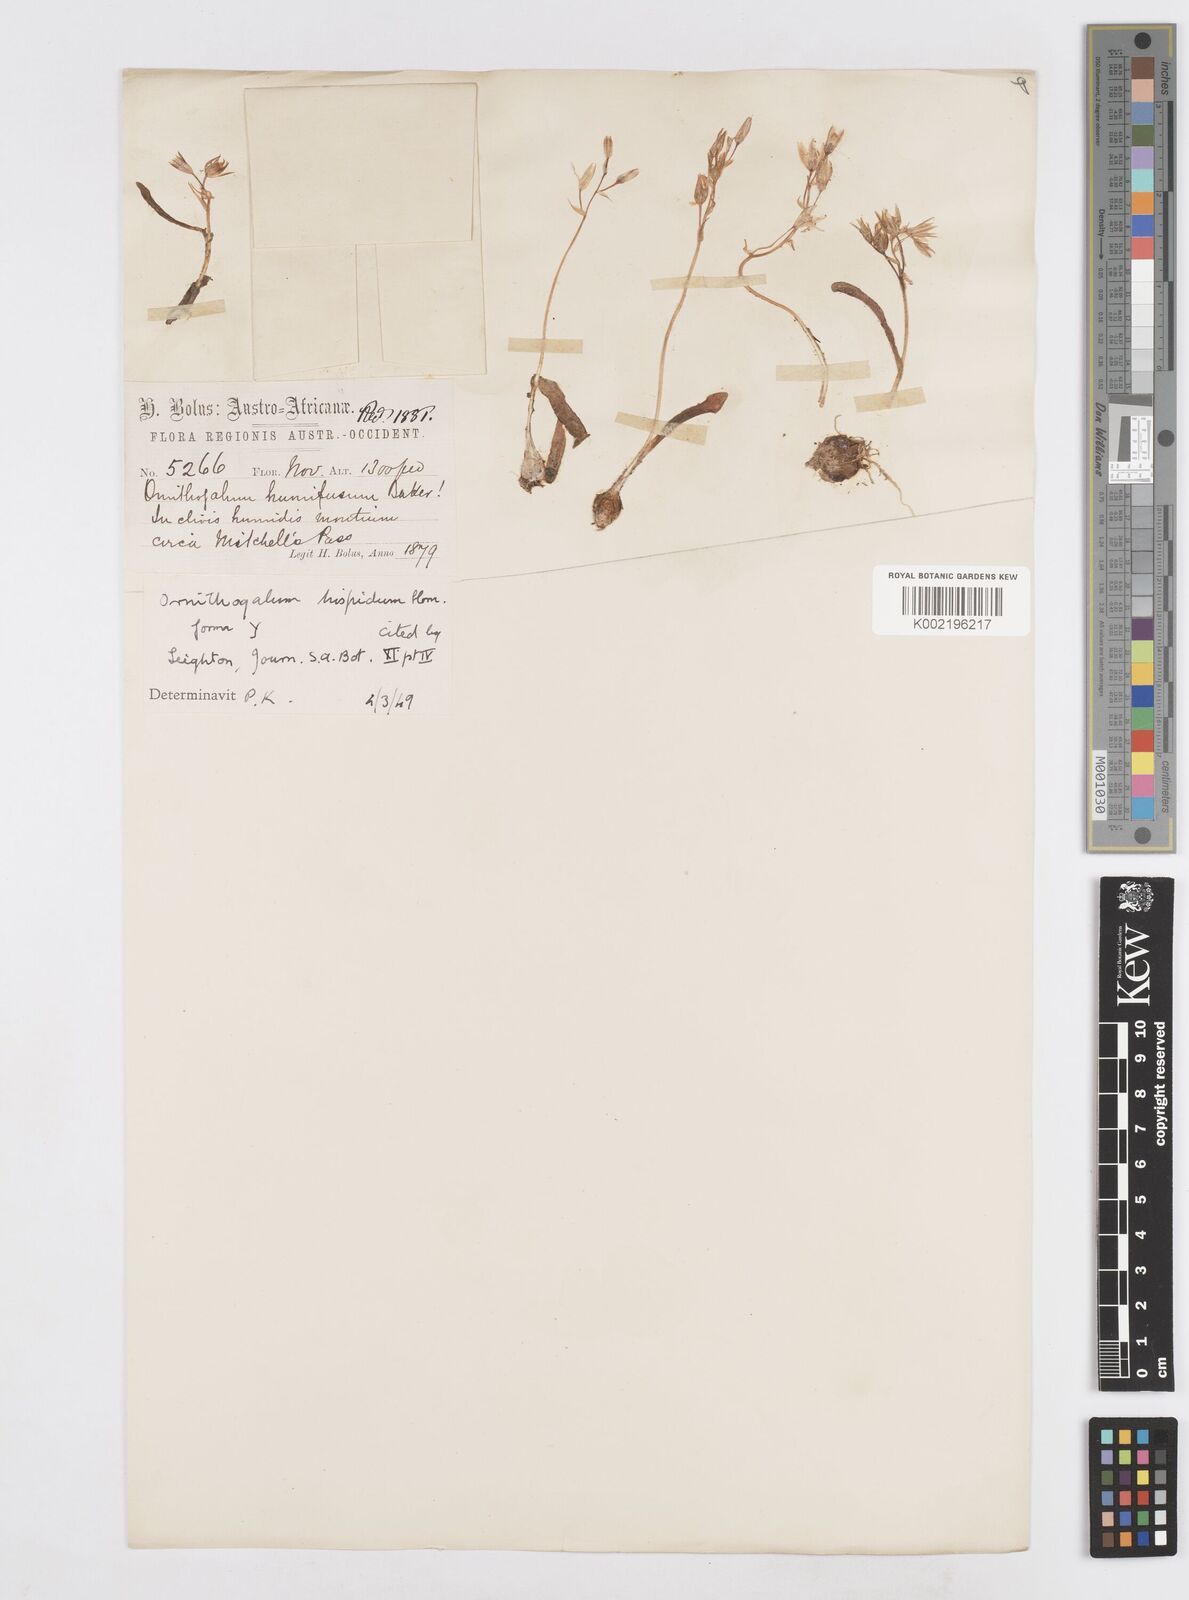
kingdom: Plantae
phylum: Tracheophyta
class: Liliopsida
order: Asparagales
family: Asparagaceae
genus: Ornithogalum
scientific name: Ornithogalum hispidum
